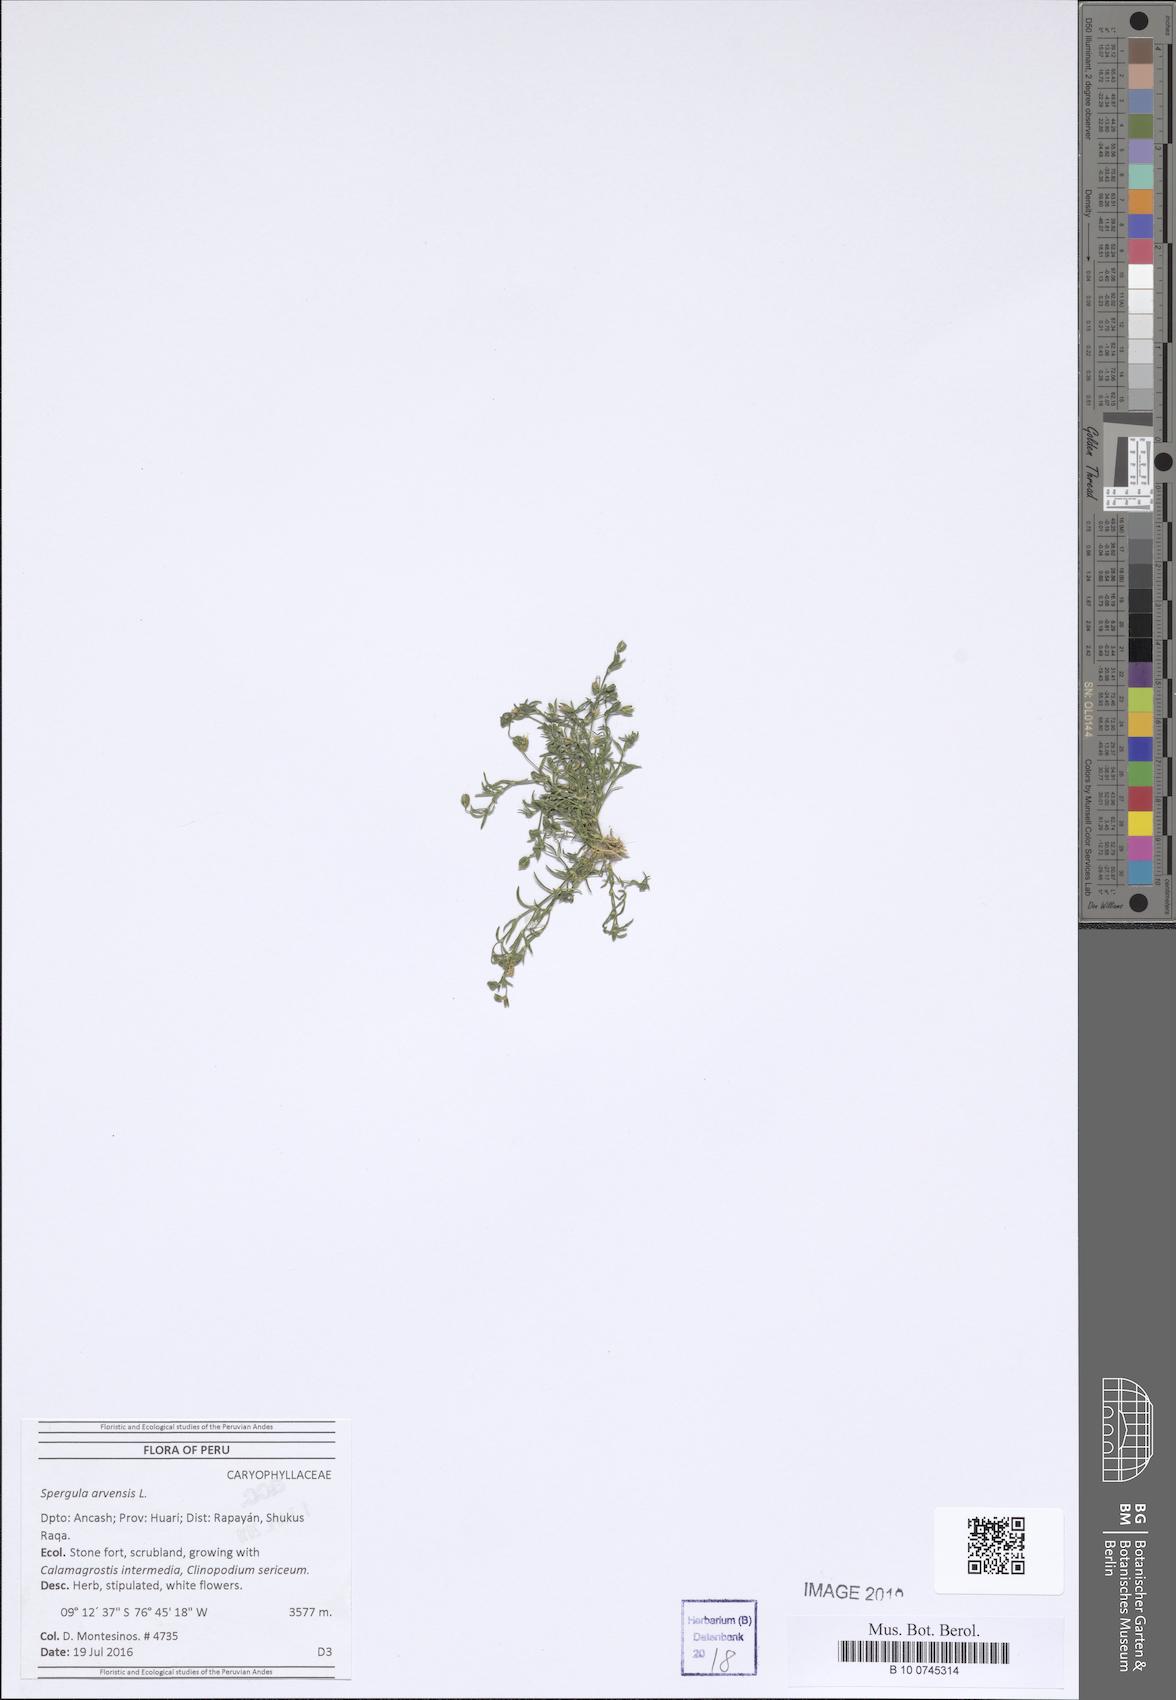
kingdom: Plantae
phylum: Tracheophyta
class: Magnoliopsida
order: Caryophyllales
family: Caryophyllaceae
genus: Spergula
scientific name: Spergula arvensis
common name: Corn spurrey
